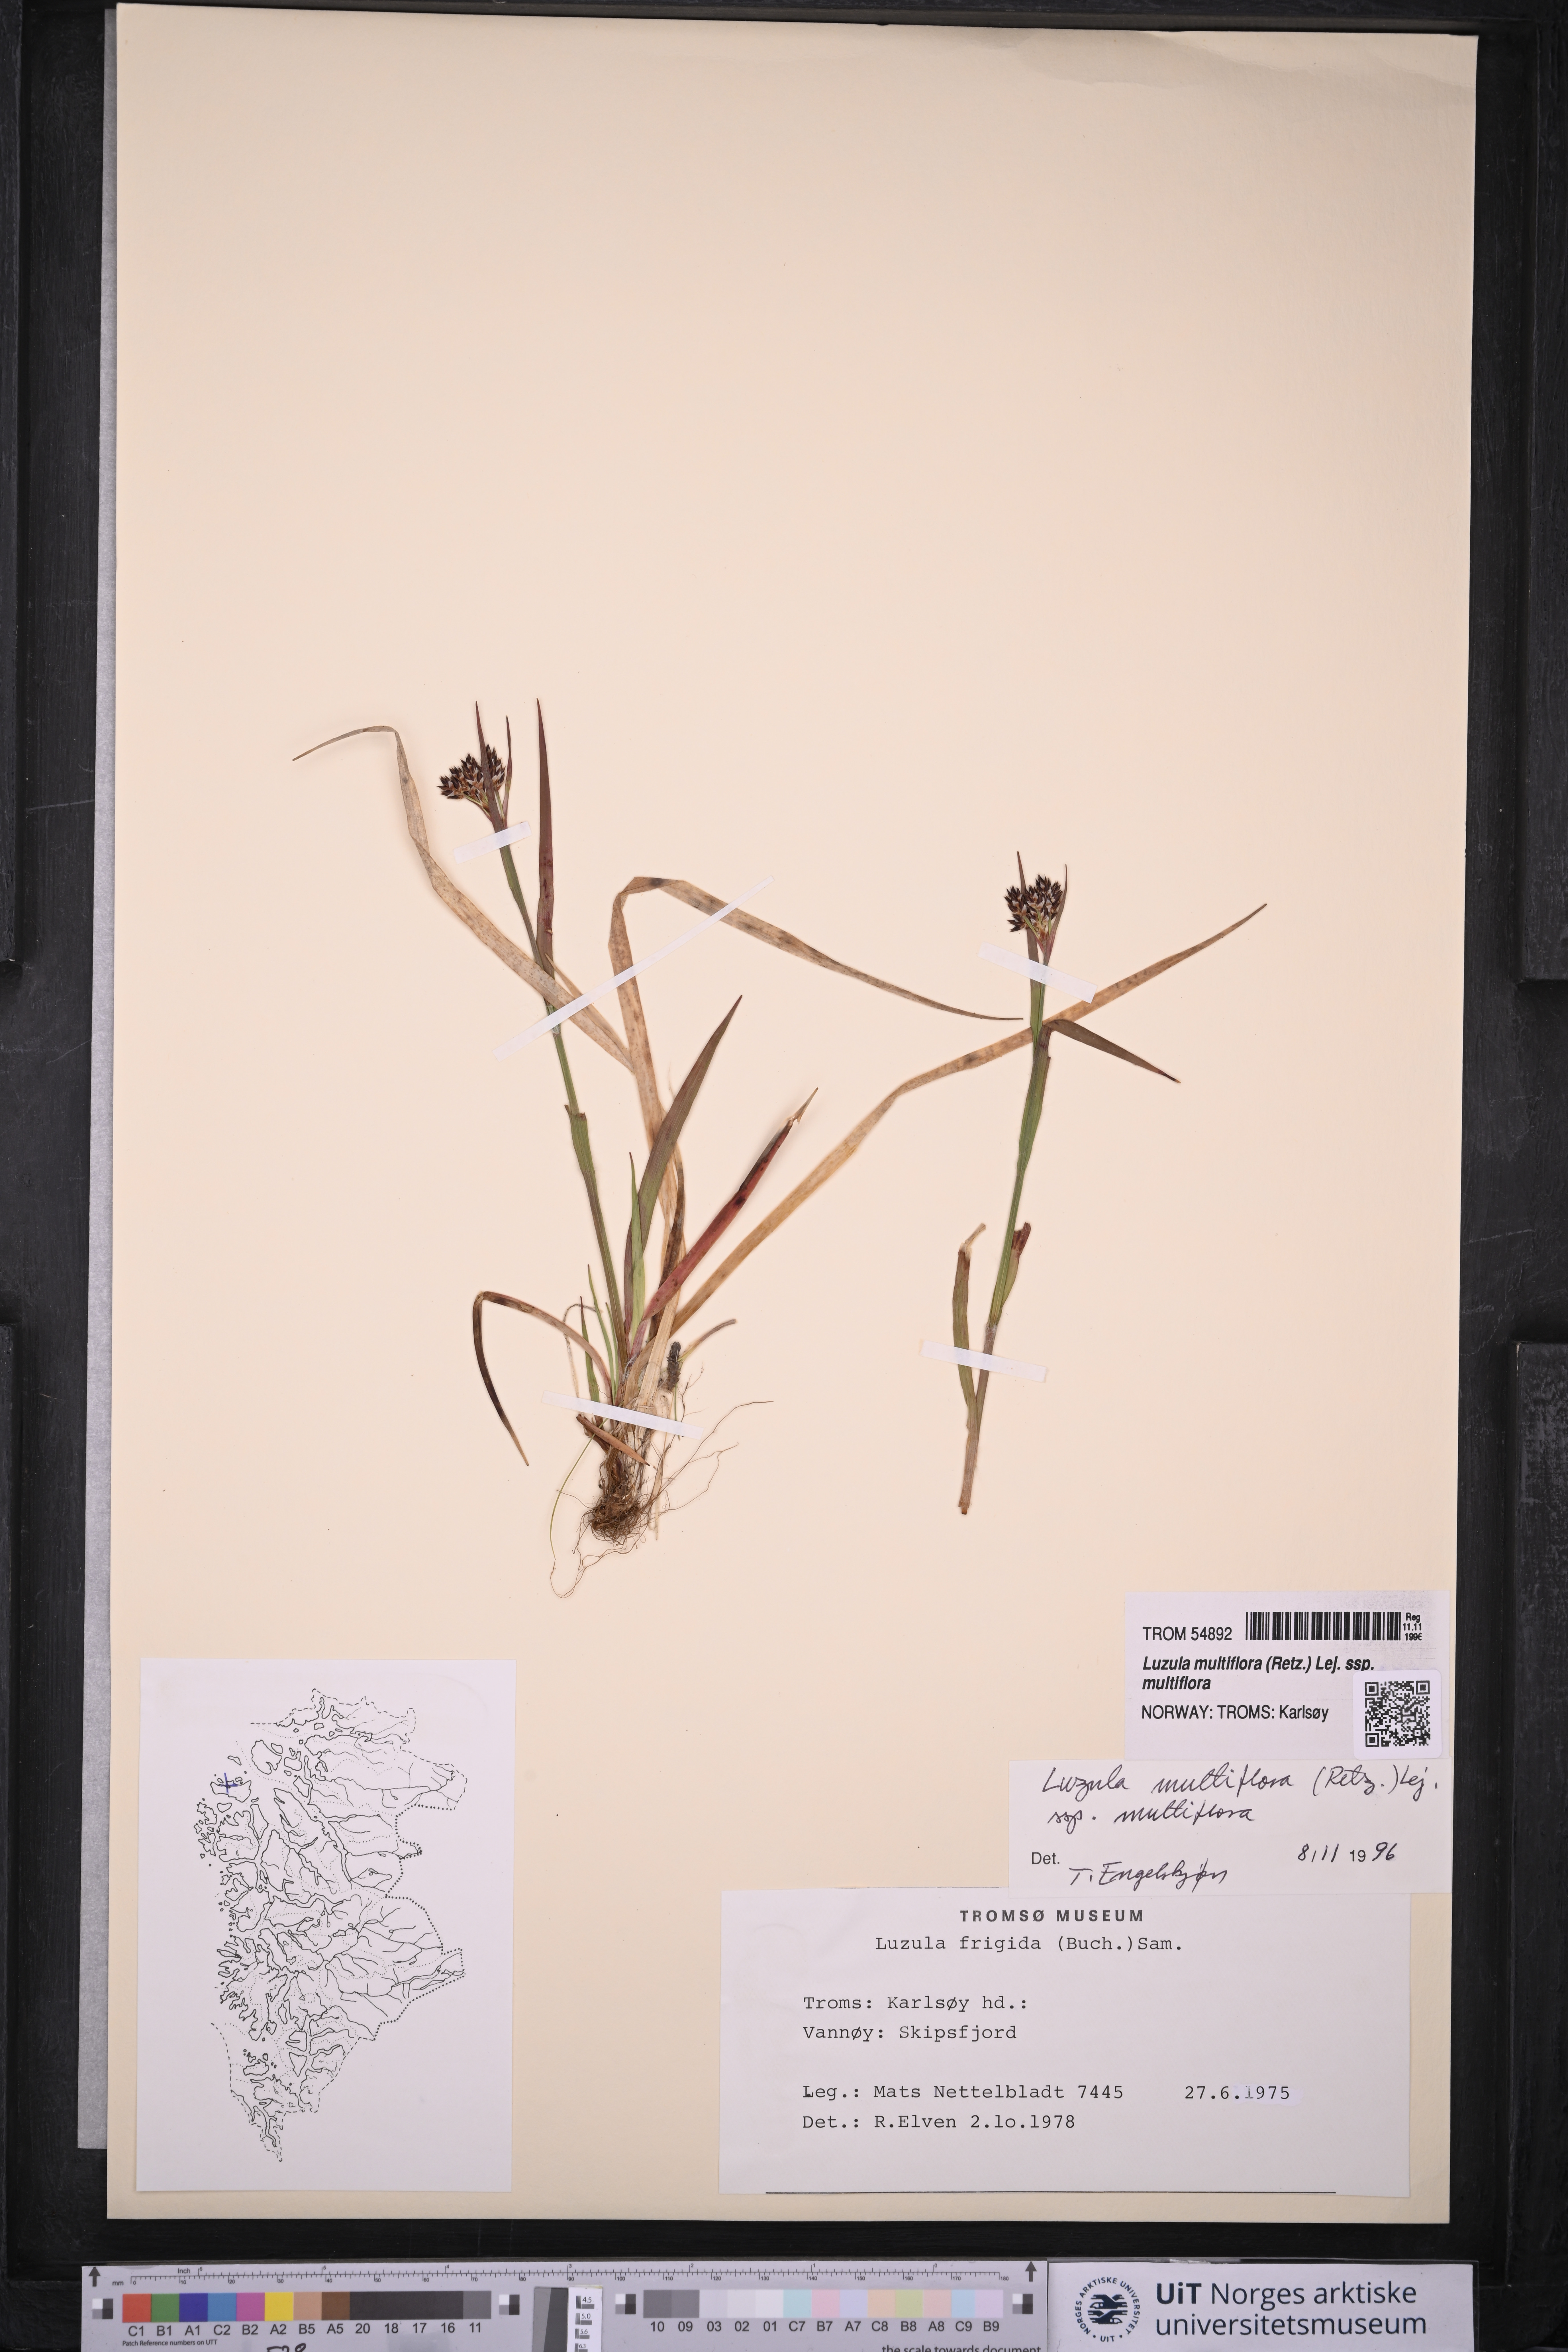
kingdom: Plantae
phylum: Tracheophyta
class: Liliopsida
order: Poales
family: Juncaceae
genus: Luzula
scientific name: Luzula multiflora
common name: Heath wood-rush
